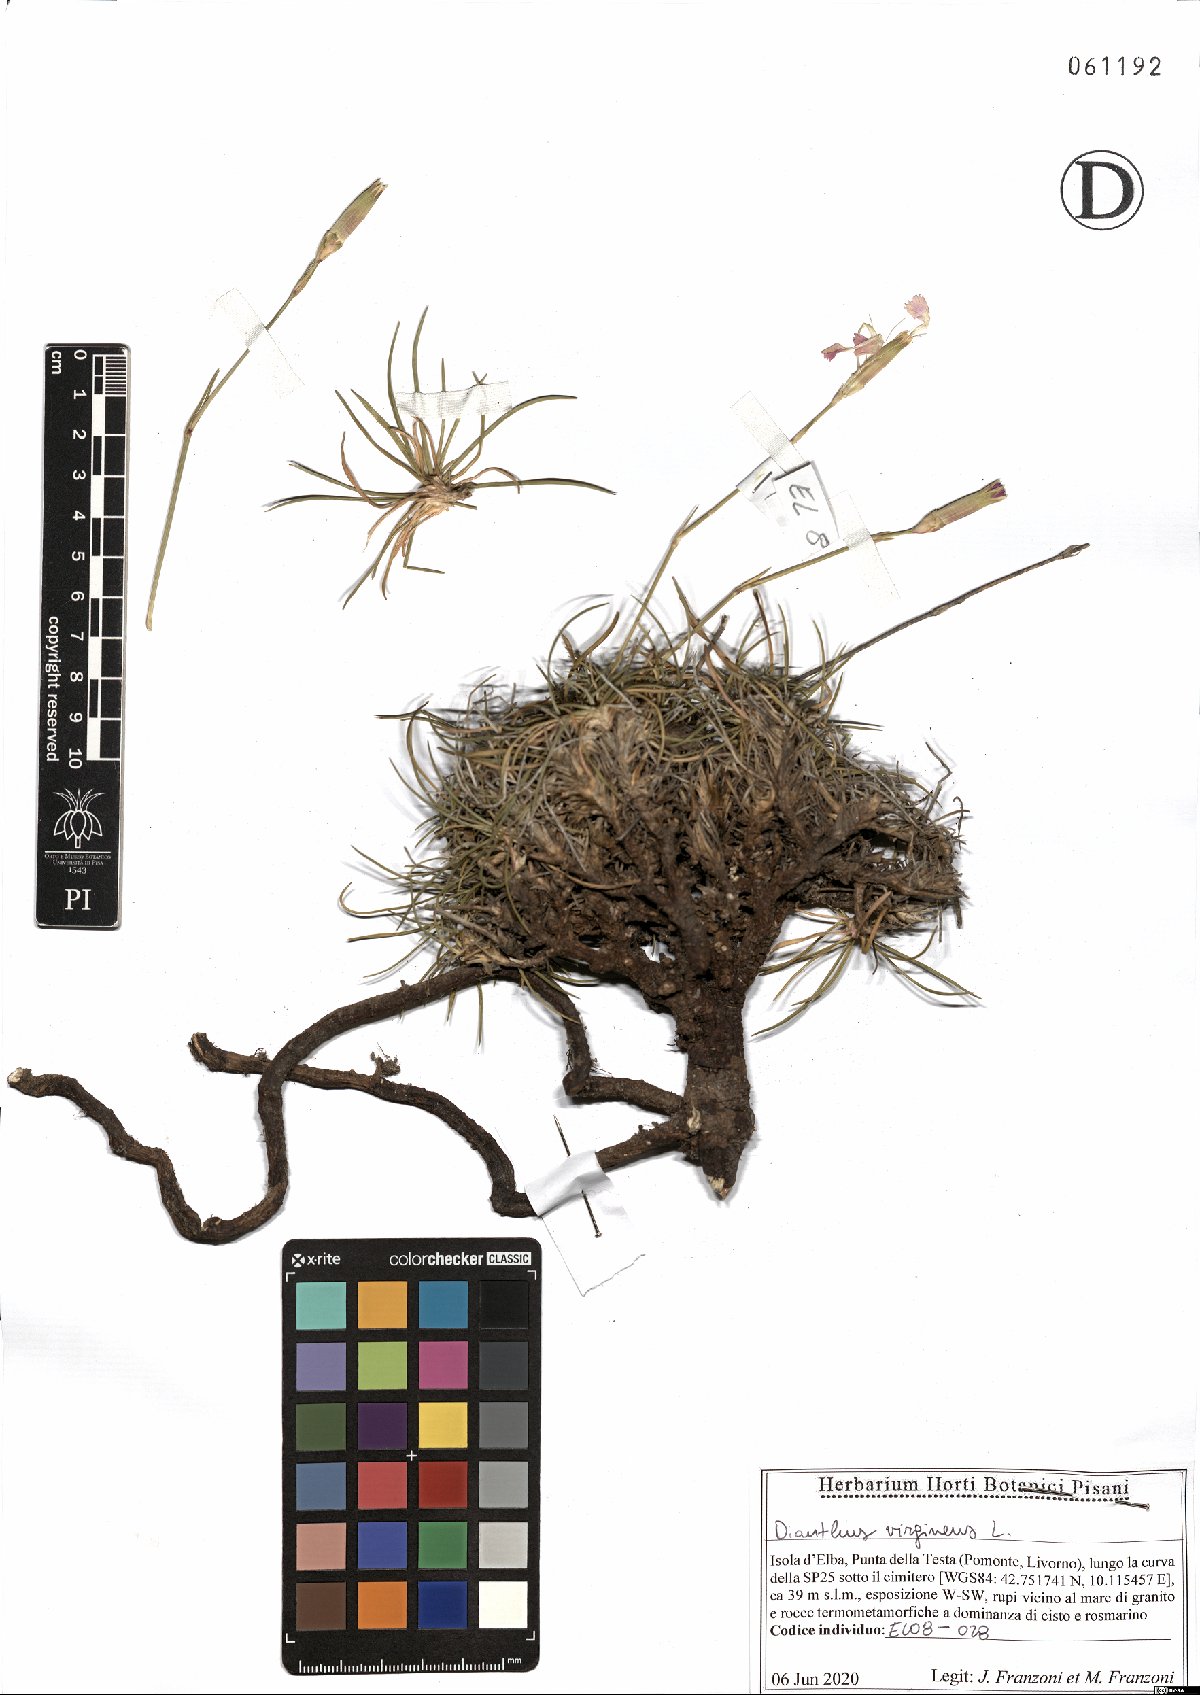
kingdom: Plantae
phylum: Tracheophyta
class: Magnoliopsida
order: Caryophyllales
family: Caryophyllaceae
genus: Dianthus
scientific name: Dianthus virgineus
